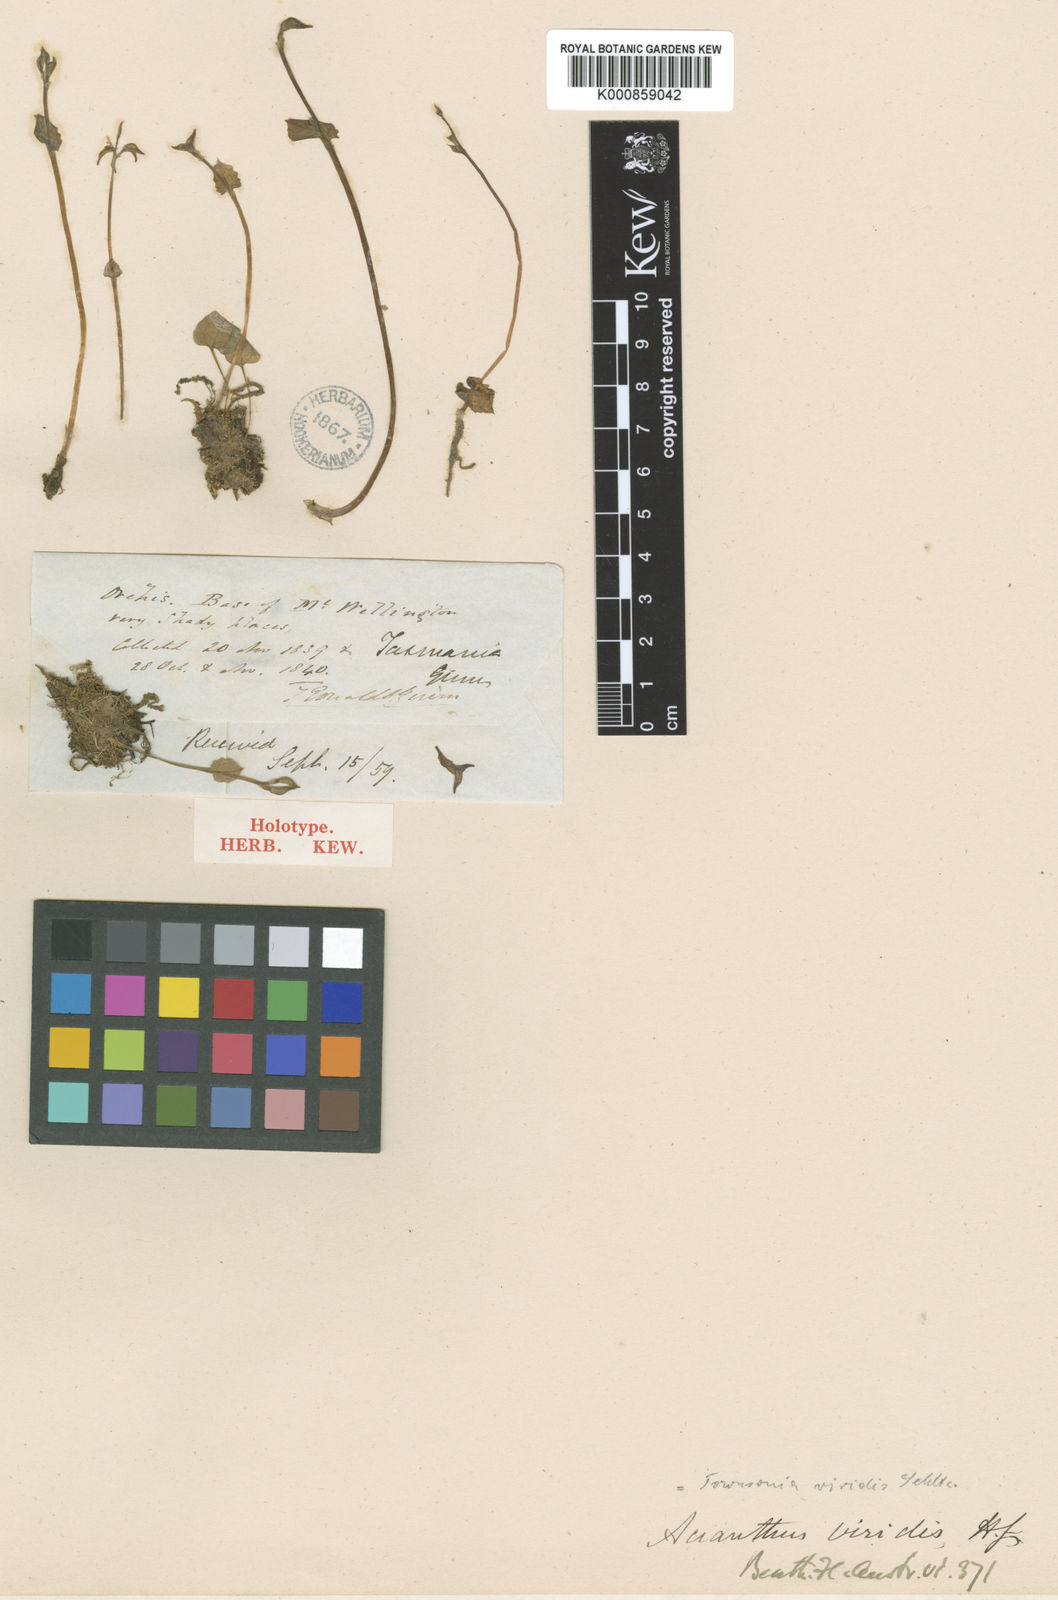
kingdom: Plantae
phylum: Tracheophyta
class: Liliopsida
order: Asparagales
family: Orchidaceae
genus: Townsonia
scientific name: Townsonia viridis
